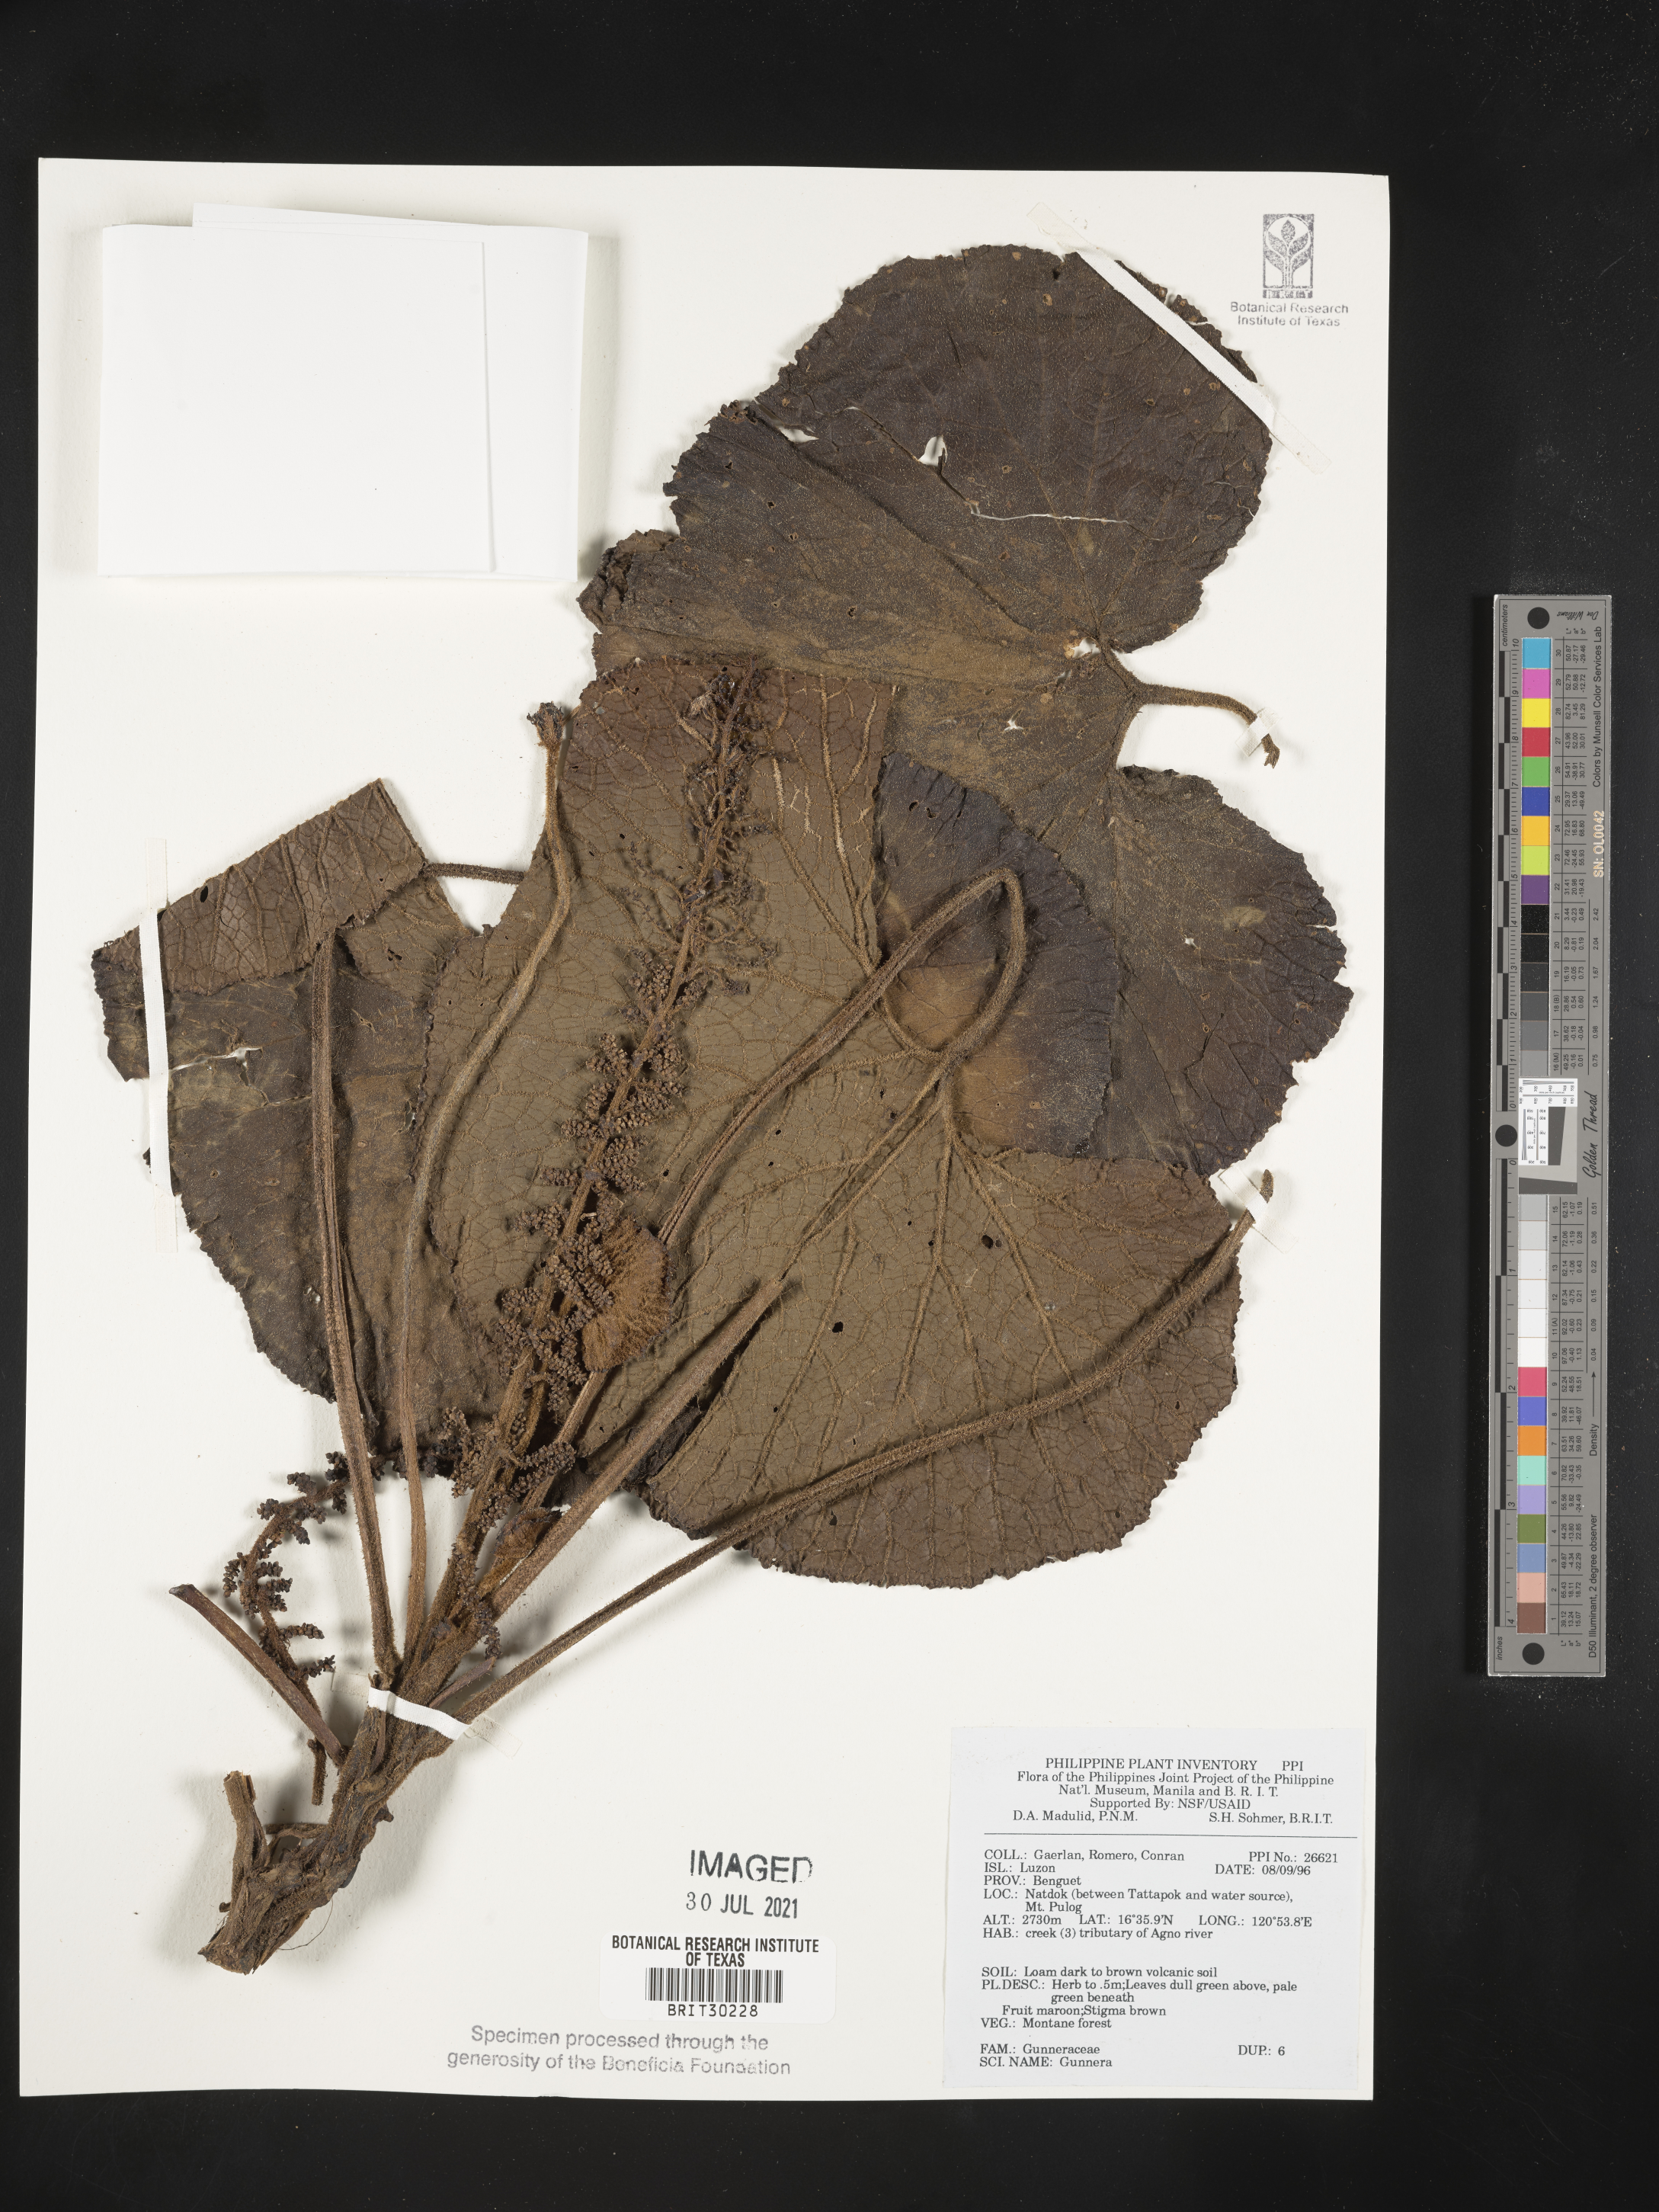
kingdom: Plantae
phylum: Tracheophyta
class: Magnoliopsida
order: Gunnerales
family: Gunneraceae
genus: Gunnera
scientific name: Gunnera
